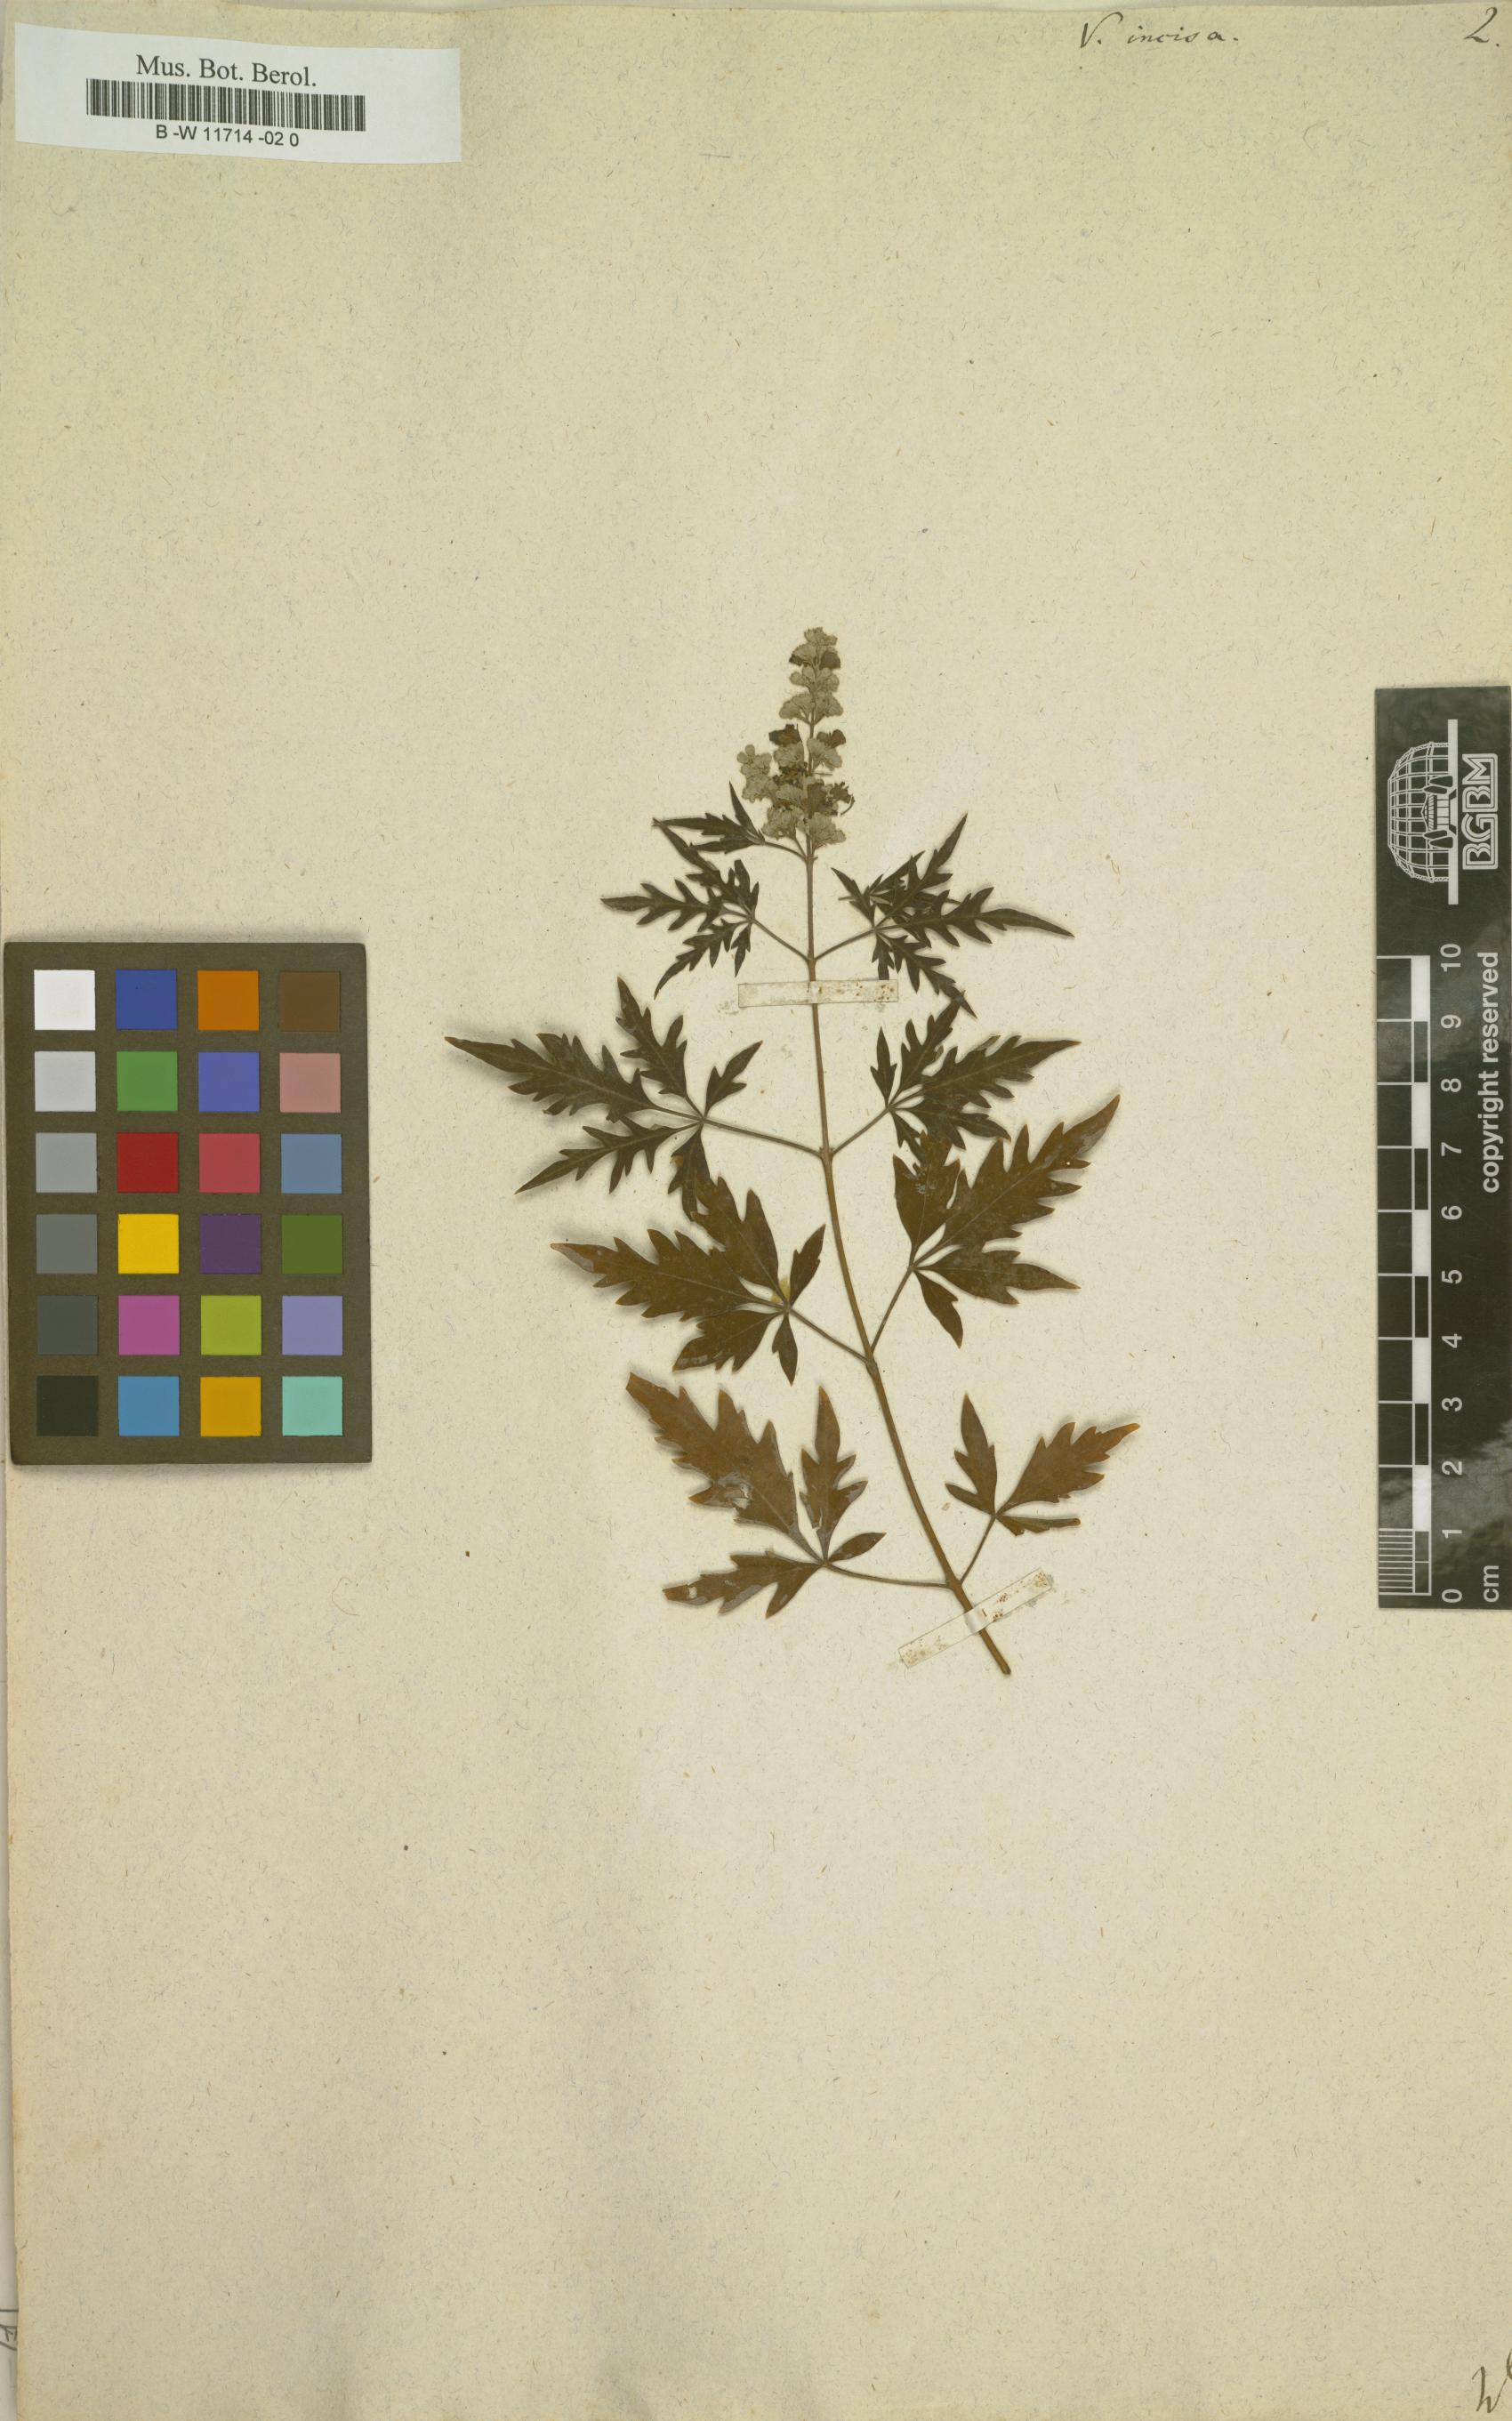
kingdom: Plantae
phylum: Tracheophyta
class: Magnoliopsida
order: Lamiales
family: Lamiaceae
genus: Vitex
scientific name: Vitex negundo
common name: Chinese chastetree
